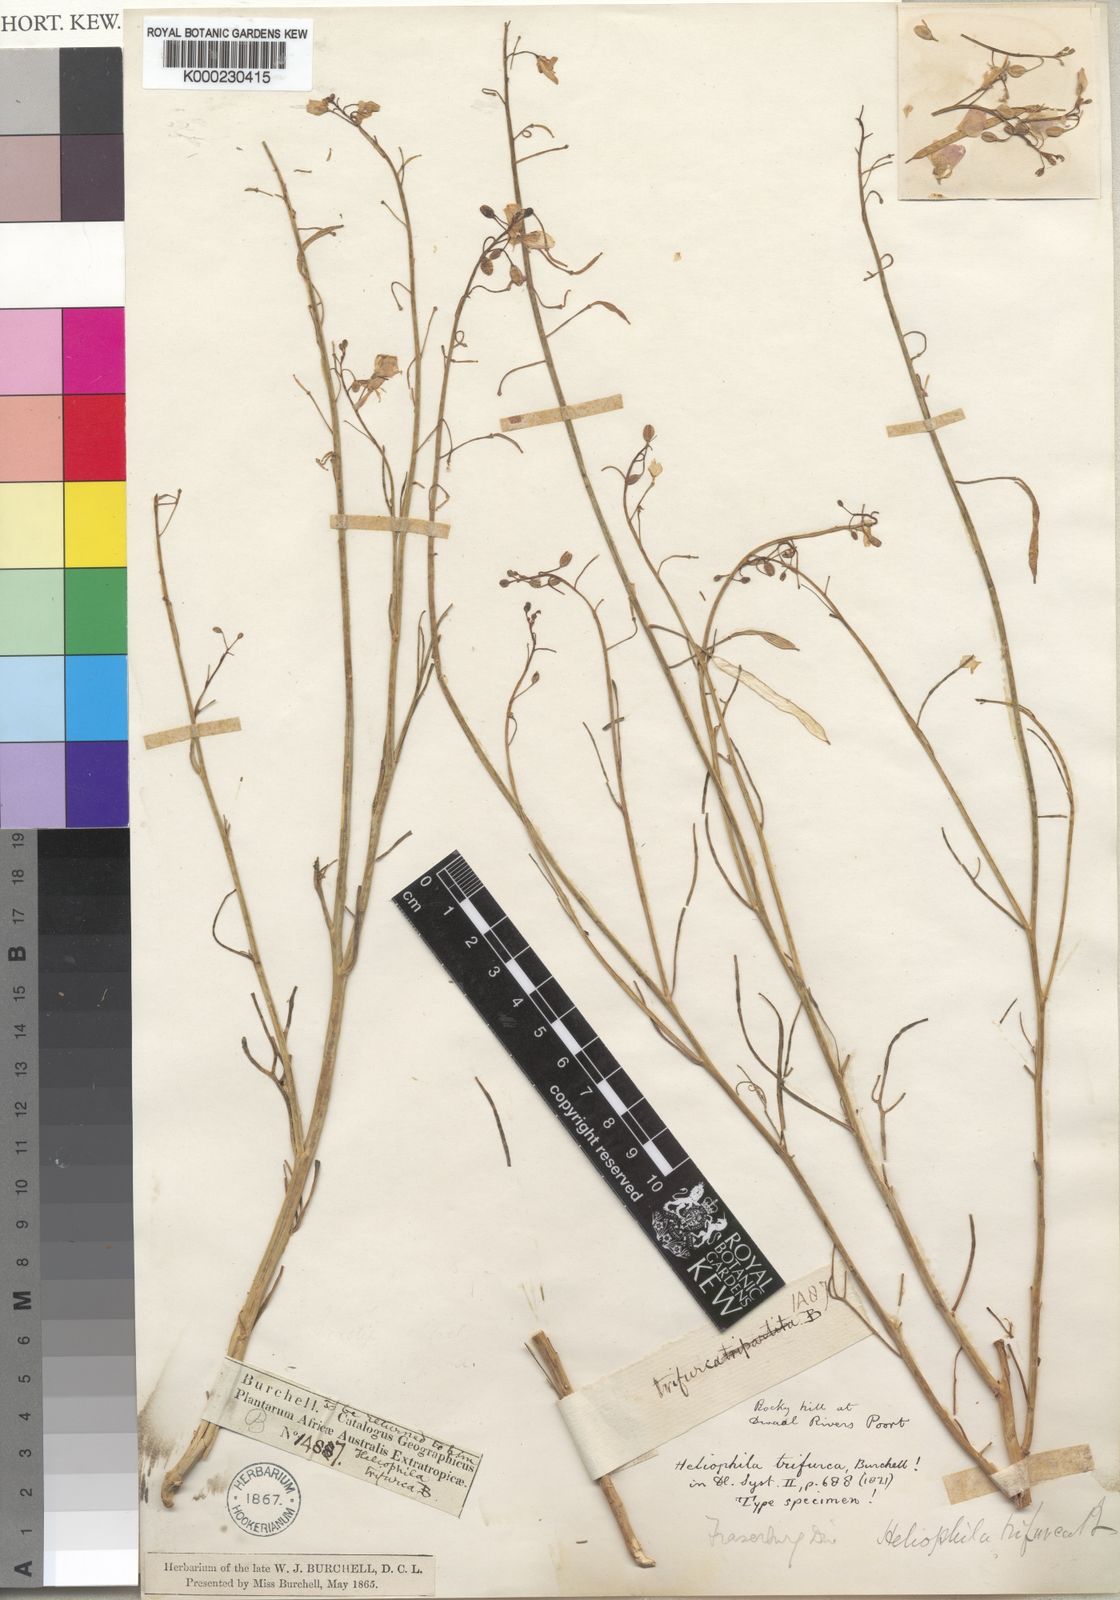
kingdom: Plantae
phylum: Tracheophyta
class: Magnoliopsida
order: Brassicales
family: Brassicaceae
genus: Heliophila
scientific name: Heliophila trifurca
